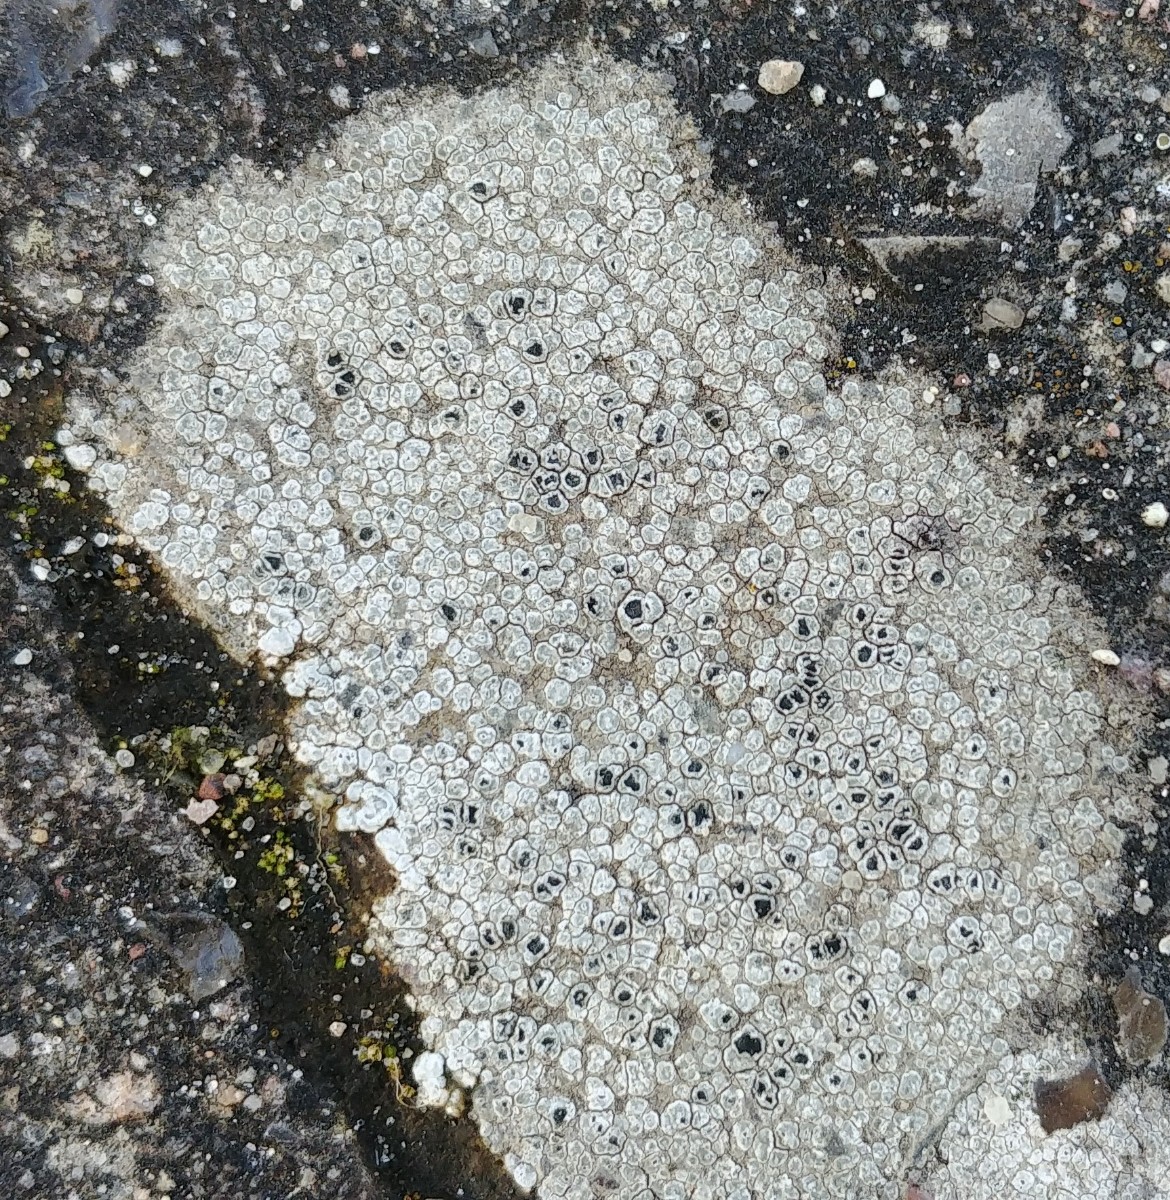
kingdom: Fungi
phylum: Ascomycota
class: Lecanoromycetes
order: Pertusariales
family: Megasporaceae
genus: Circinaria
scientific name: Circinaria contorta
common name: indviklet hulskivelav
